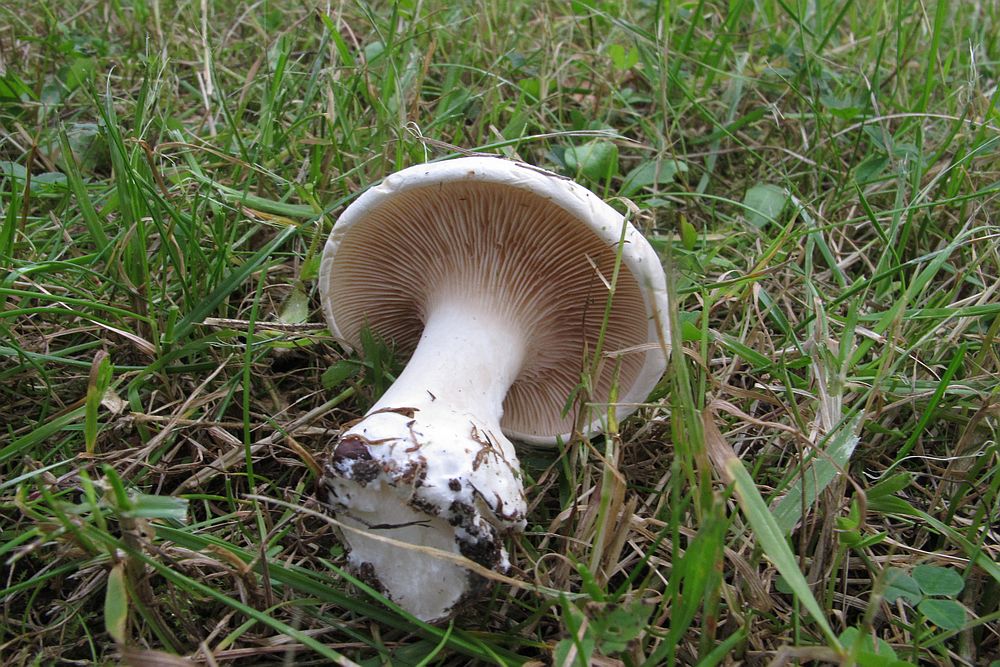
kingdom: Fungi
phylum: Basidiomycota
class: Agaricomycetes
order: Agaricales
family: Entolomataceae
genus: Clitopilus
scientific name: Clitopilus prunulus
